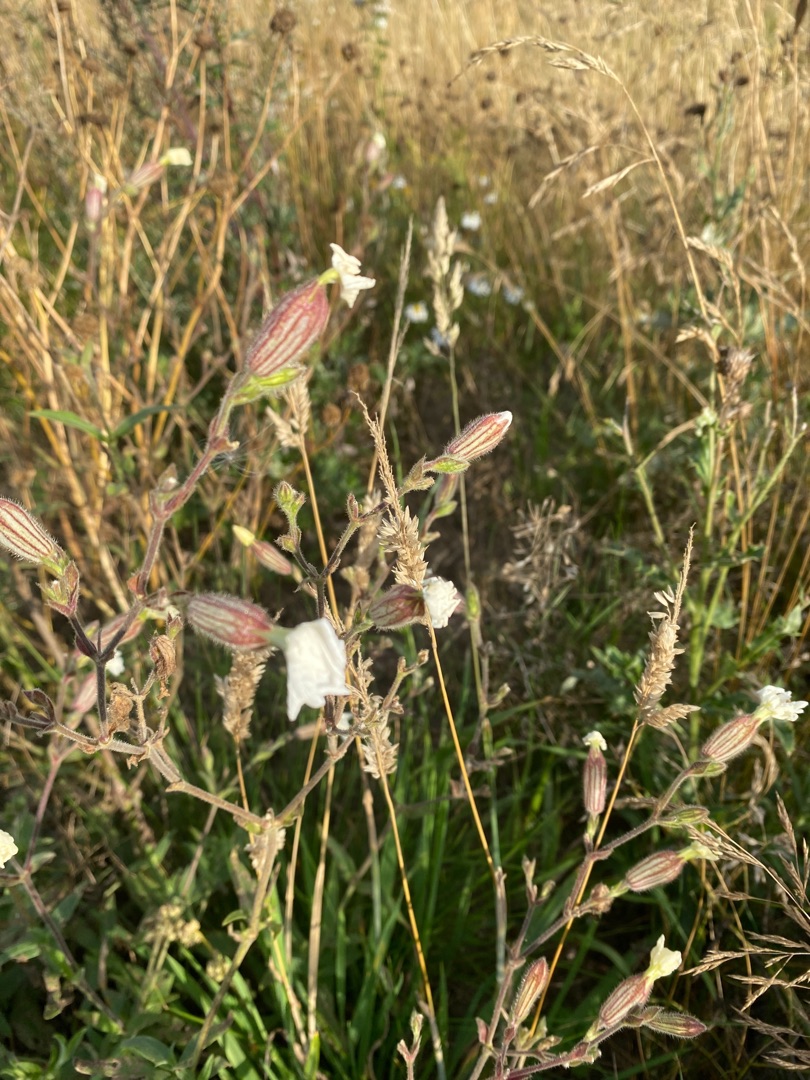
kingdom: Plantae
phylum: Tracheophyta
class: Magnoliopsida
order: Caryophyllales
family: Caryophyllaceae
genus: Silene
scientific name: Silene latifolia
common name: Aftenpragtstjerne
